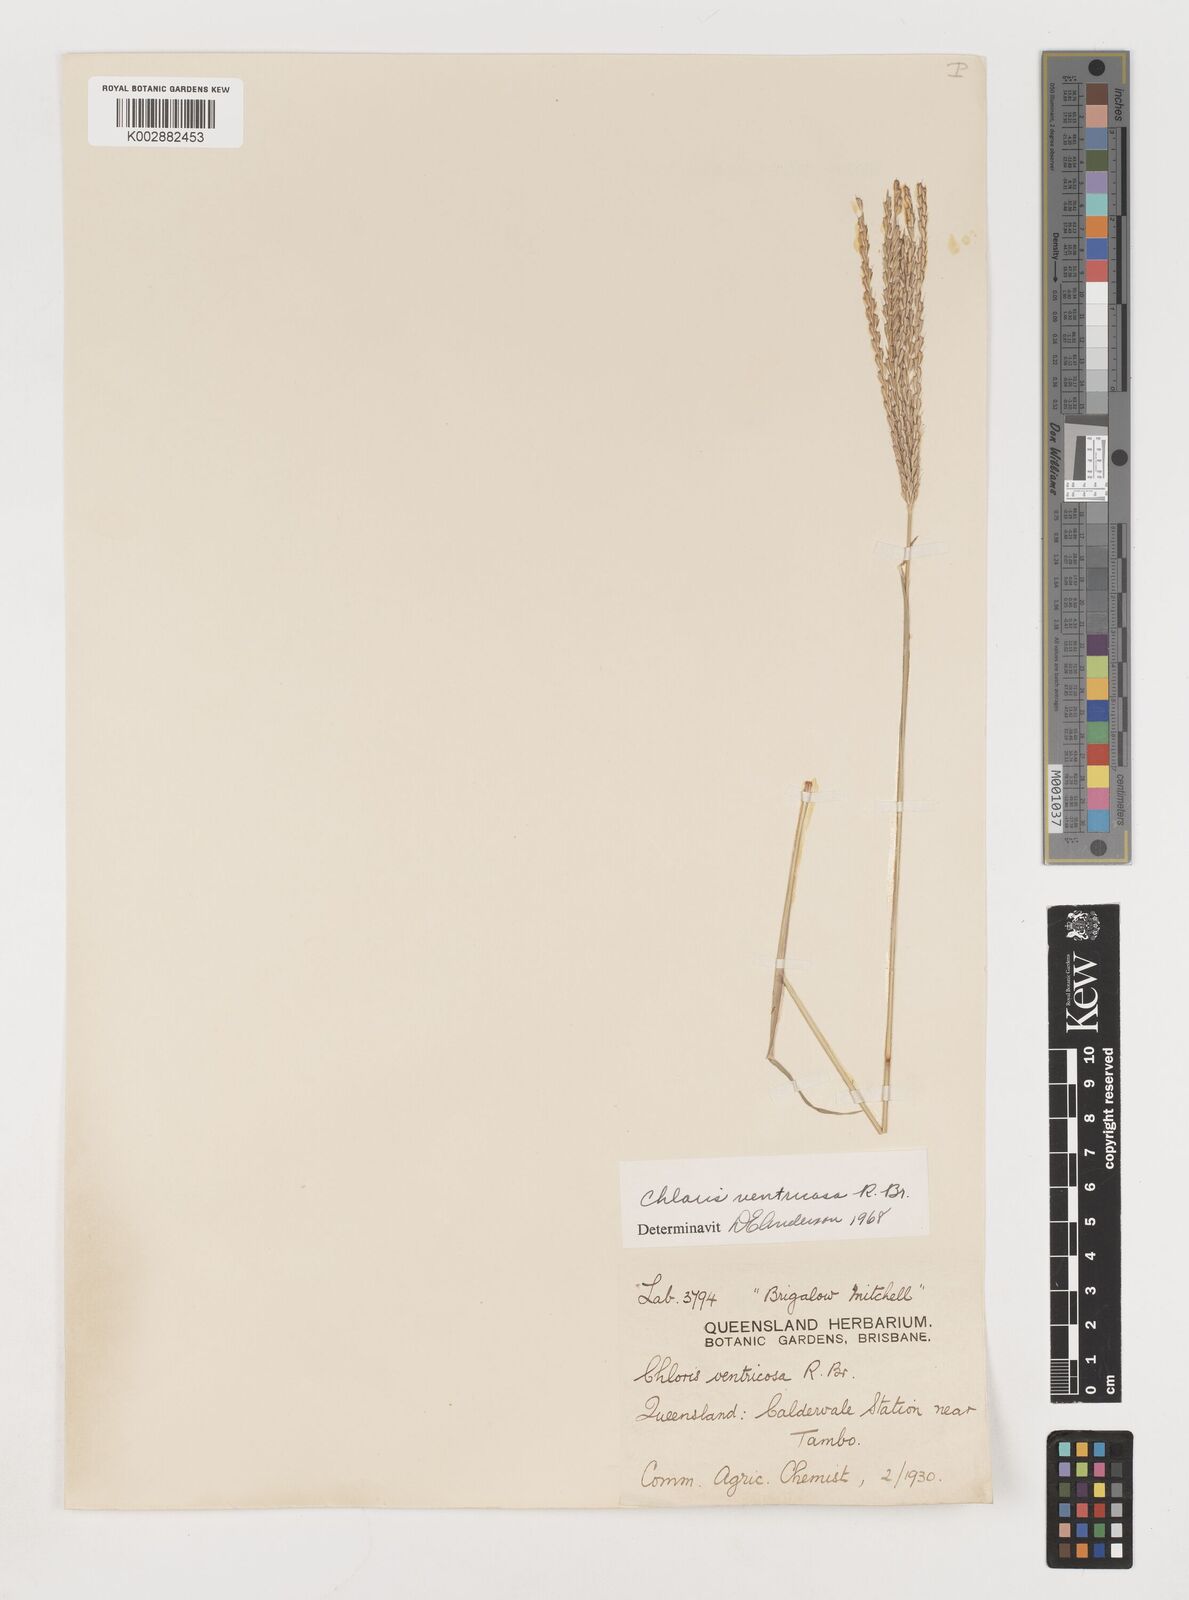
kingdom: Plantae
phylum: Tracheophyta
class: Liliopsida
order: Poales
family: Poaceae
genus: Chloris
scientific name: Chloris ventricosa
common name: Australian windmill grass
